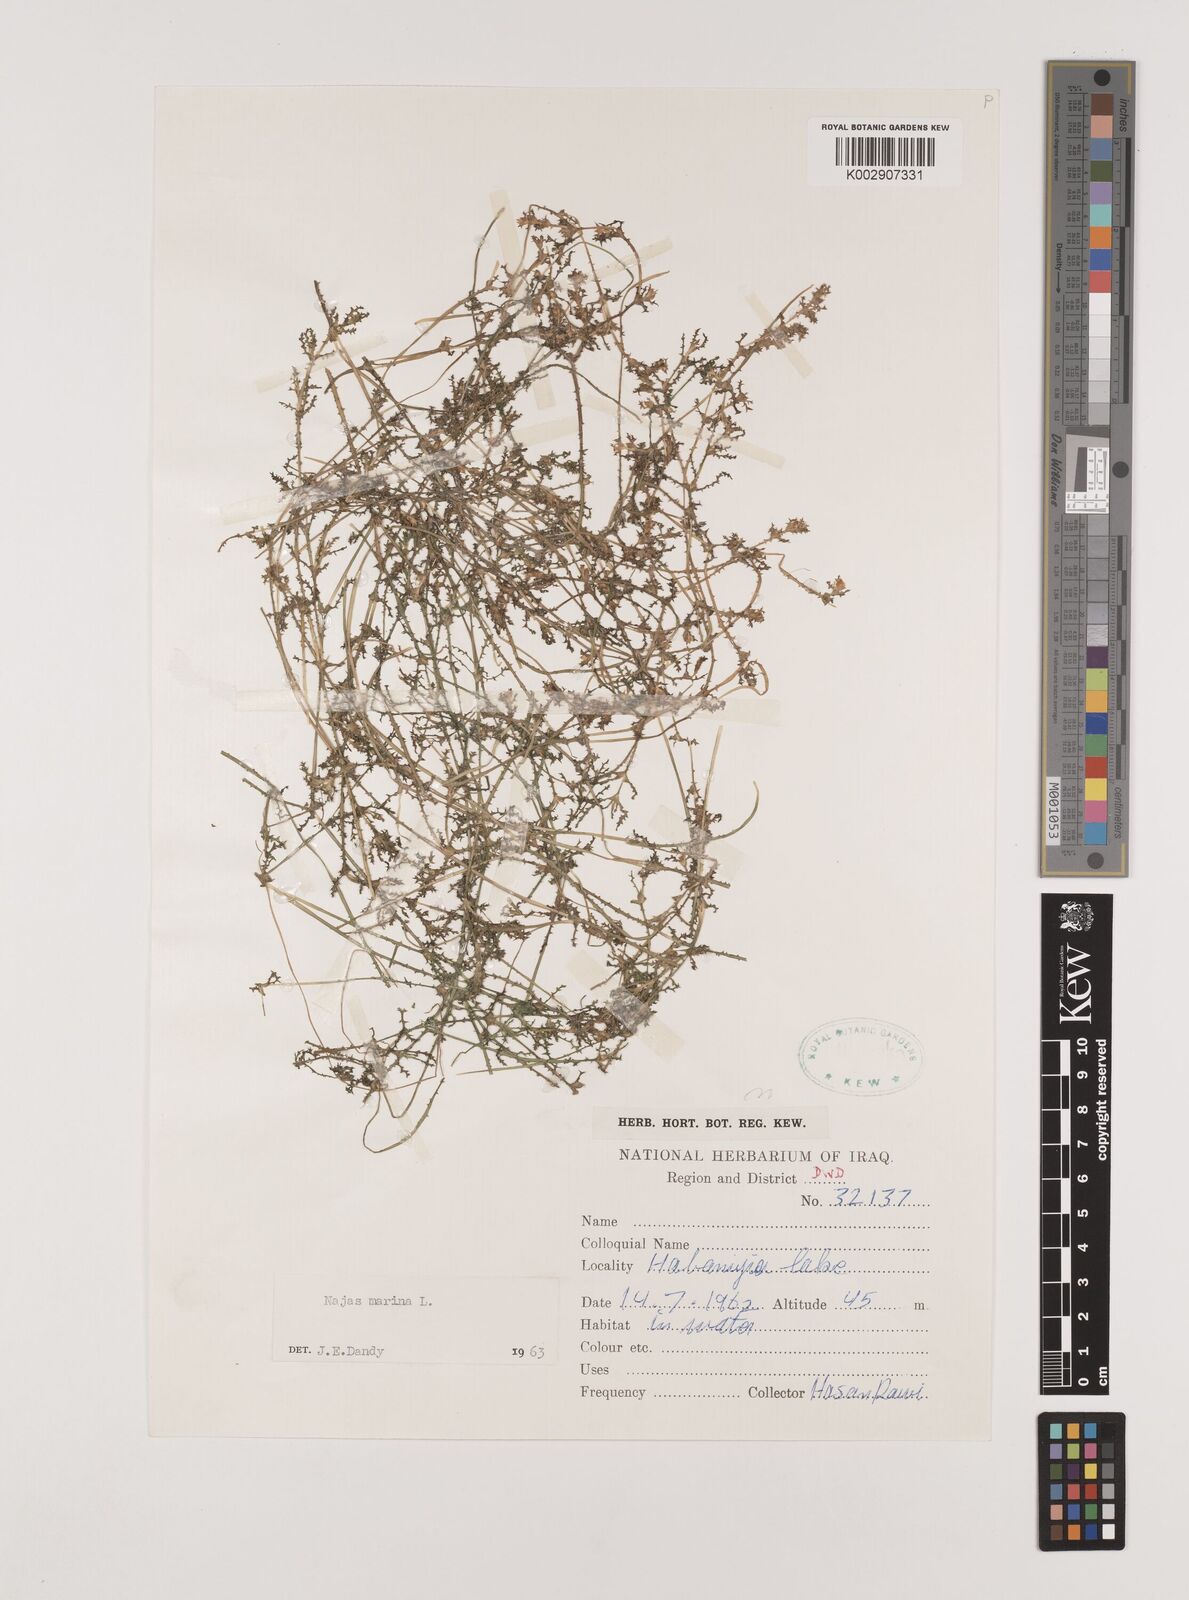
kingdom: Plantae
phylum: Tracheophyta
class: Liliopsida
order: Alismatales
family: Hydrocharitaceae
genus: Najas
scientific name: Najas marina
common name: Holly-leaved naiad
